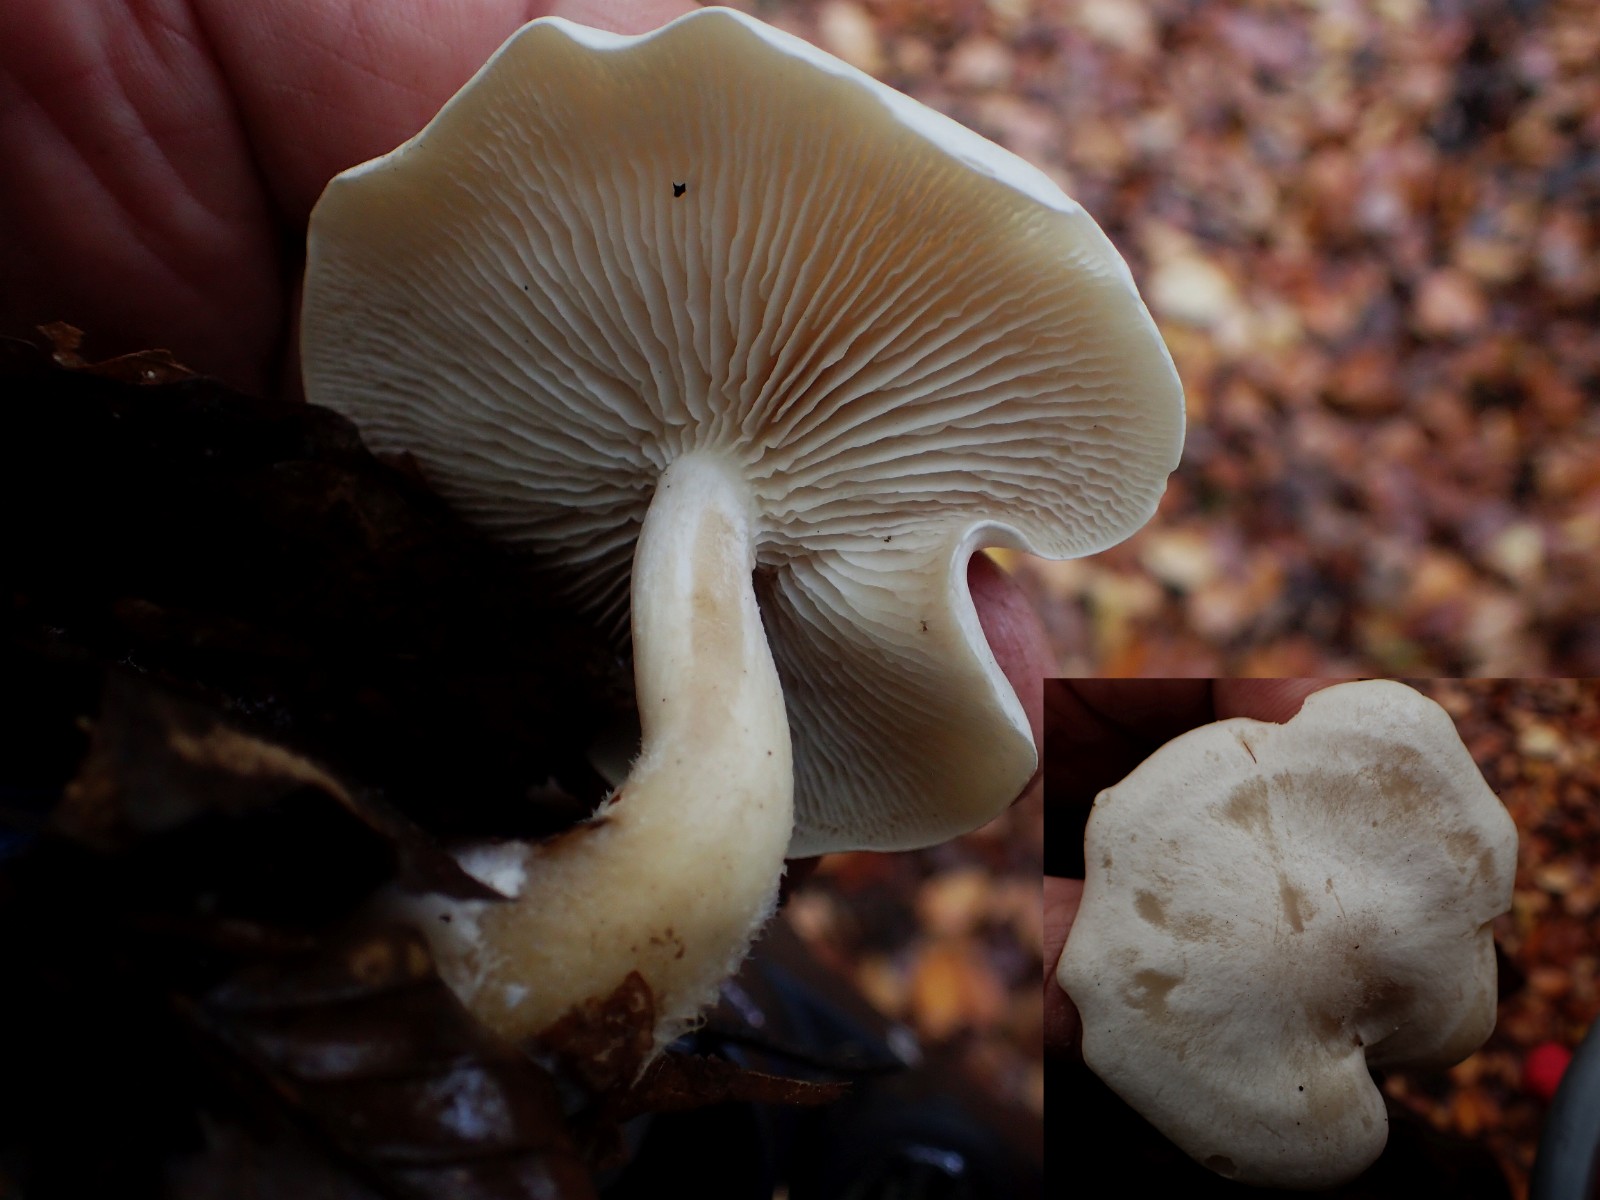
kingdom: Fungi
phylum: Basidiomycota
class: Agaricomycetes
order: Agaricales
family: Tricholomataceae
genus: Clitocybe
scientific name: Clitocybe phyllophila
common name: løv-tragthat
